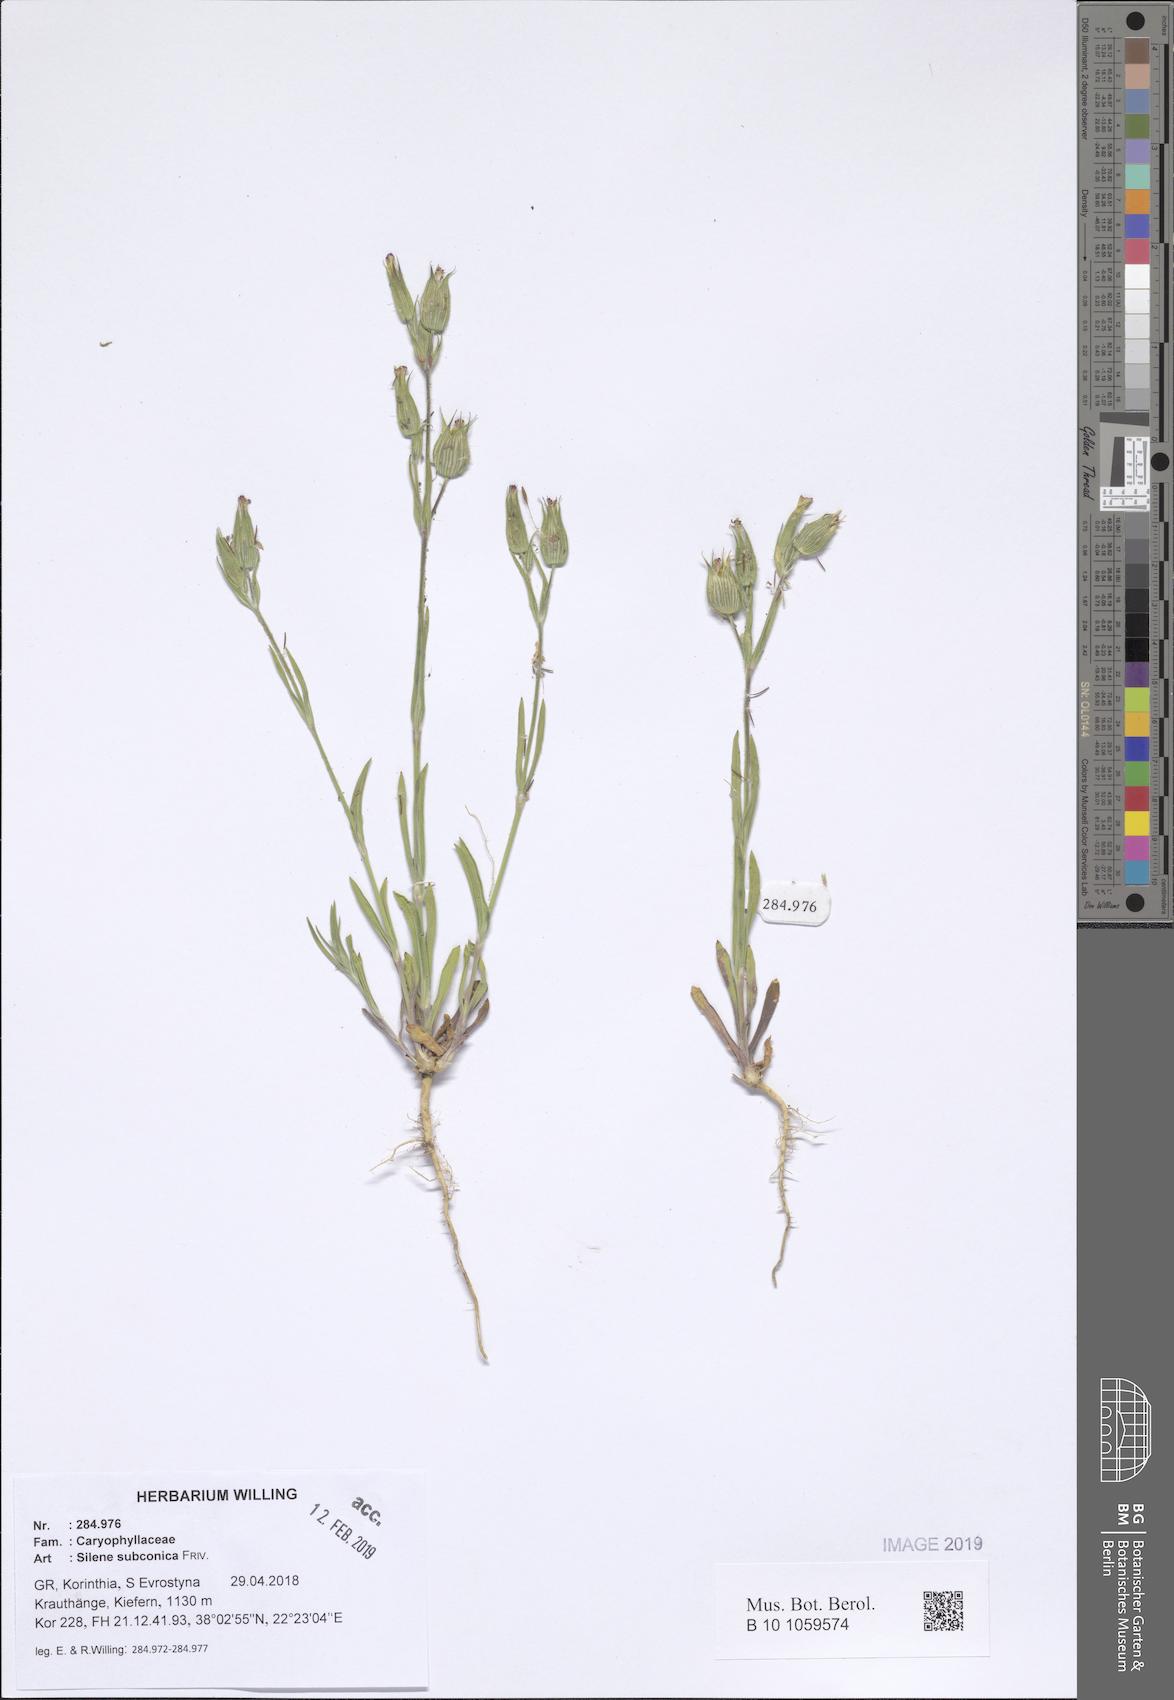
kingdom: Plantae
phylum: Tracheophyta
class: Magnoliopsida
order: Caryophyllales
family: Caryophyllaceae
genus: Silene
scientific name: Silene subconica
